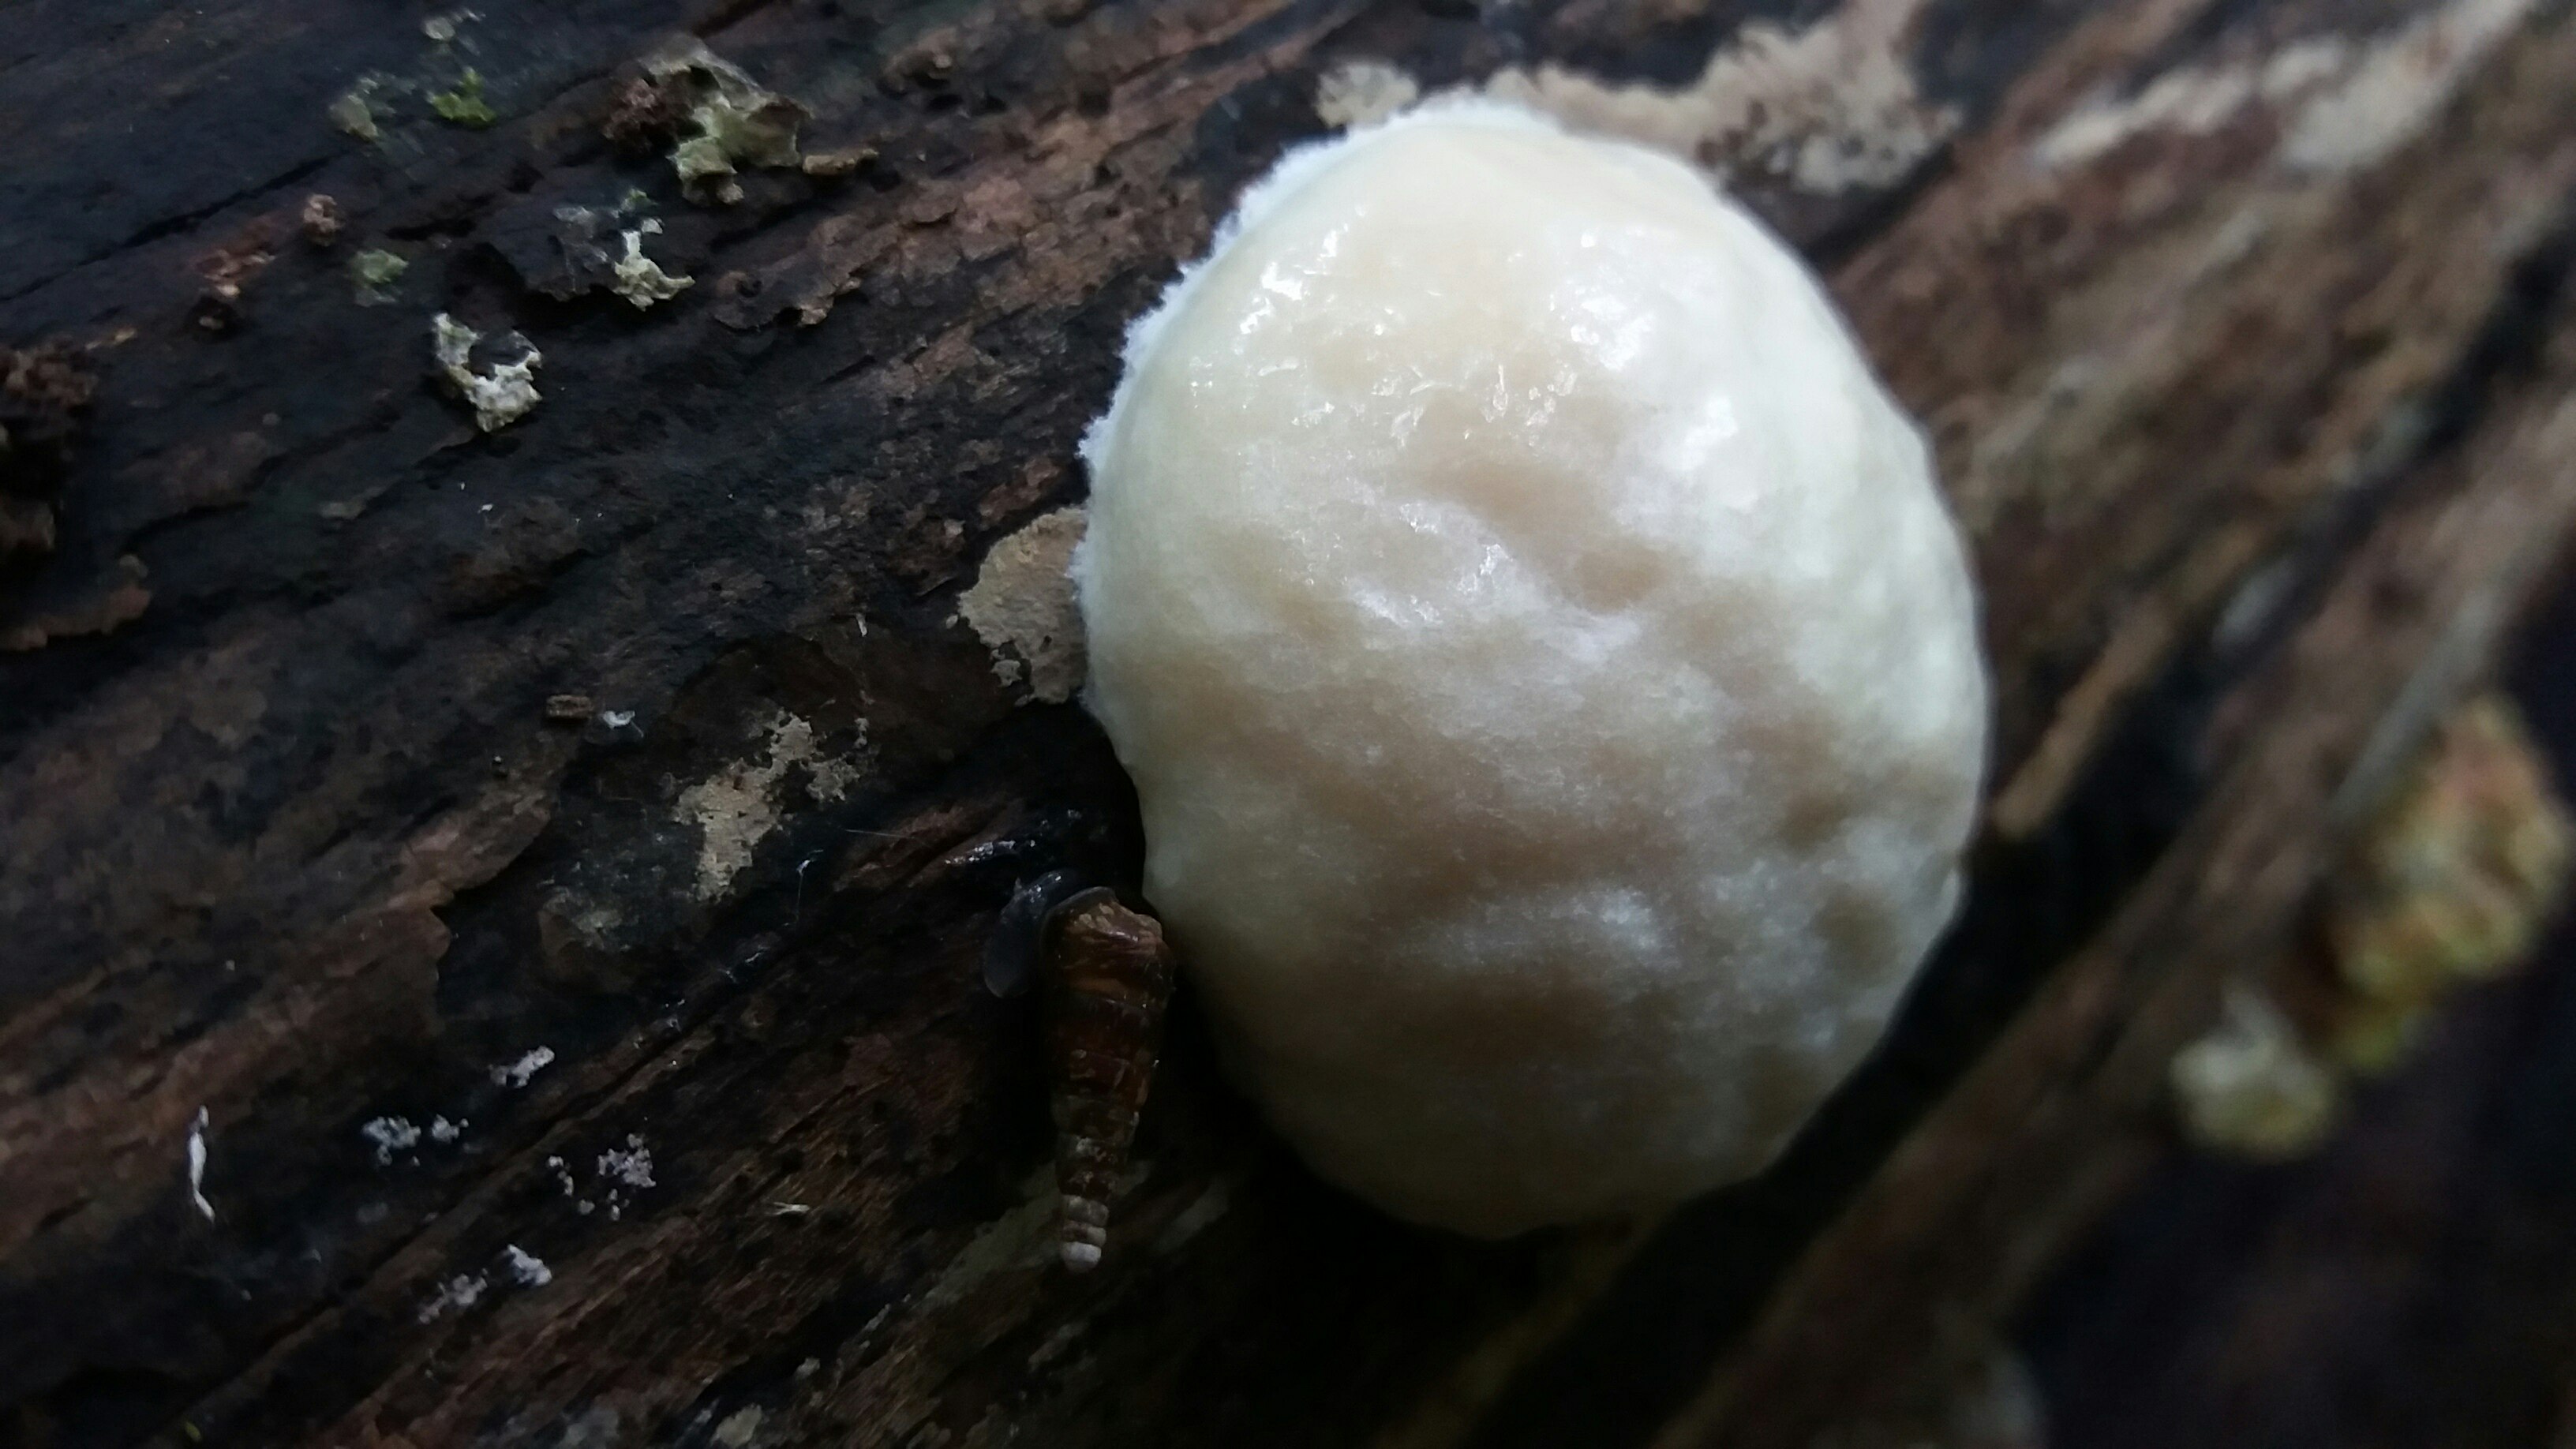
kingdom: Protozoa
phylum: Mycetozoa
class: Myxomycetes
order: Cribrariales
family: Tubiferaceae
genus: Reticularia
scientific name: Reticularia lycoperdon
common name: skinnende støvpude
